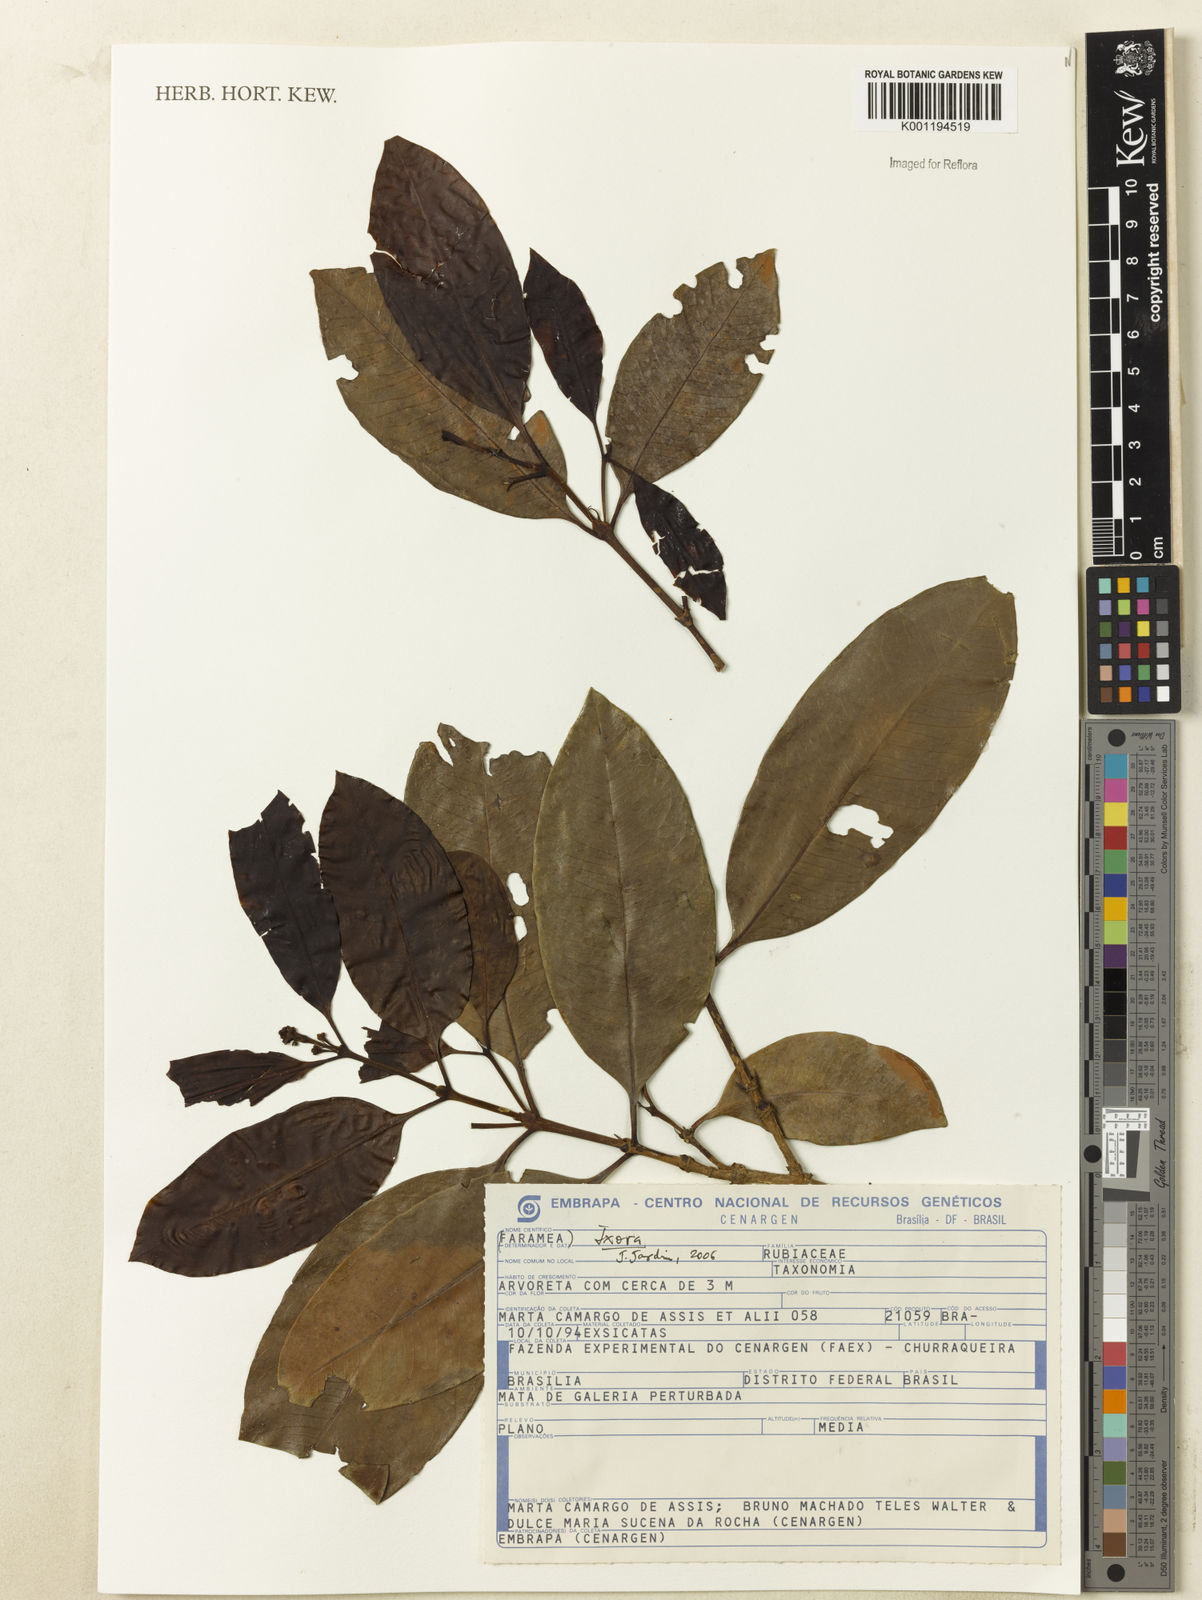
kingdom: Plantae
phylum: Tracheophyta
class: Magnoliopsida
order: Gentianales
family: Rubiaceae
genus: Ixora
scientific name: Ixora
